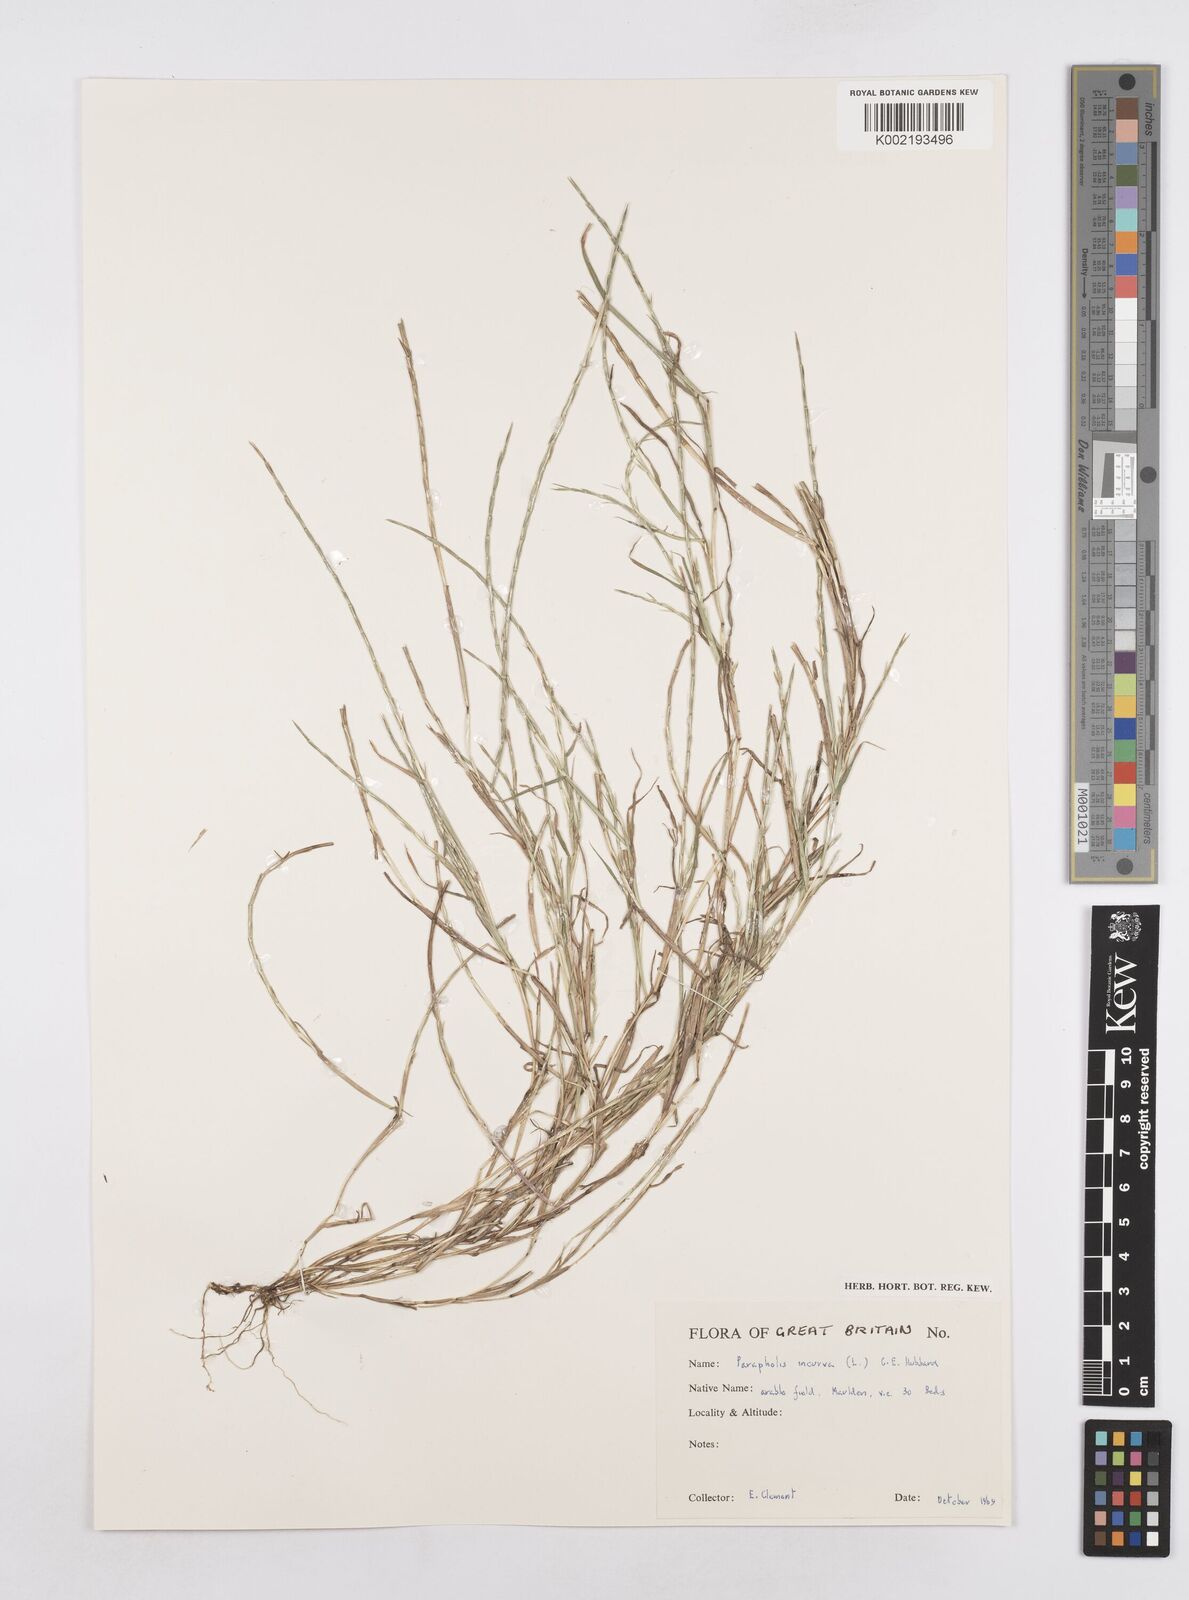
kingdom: Plantae
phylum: Tracheophyta
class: Liliopsida
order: Poales
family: Poaceae
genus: Parapholis
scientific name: Parapholis incurva
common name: Curved sicklegrass
